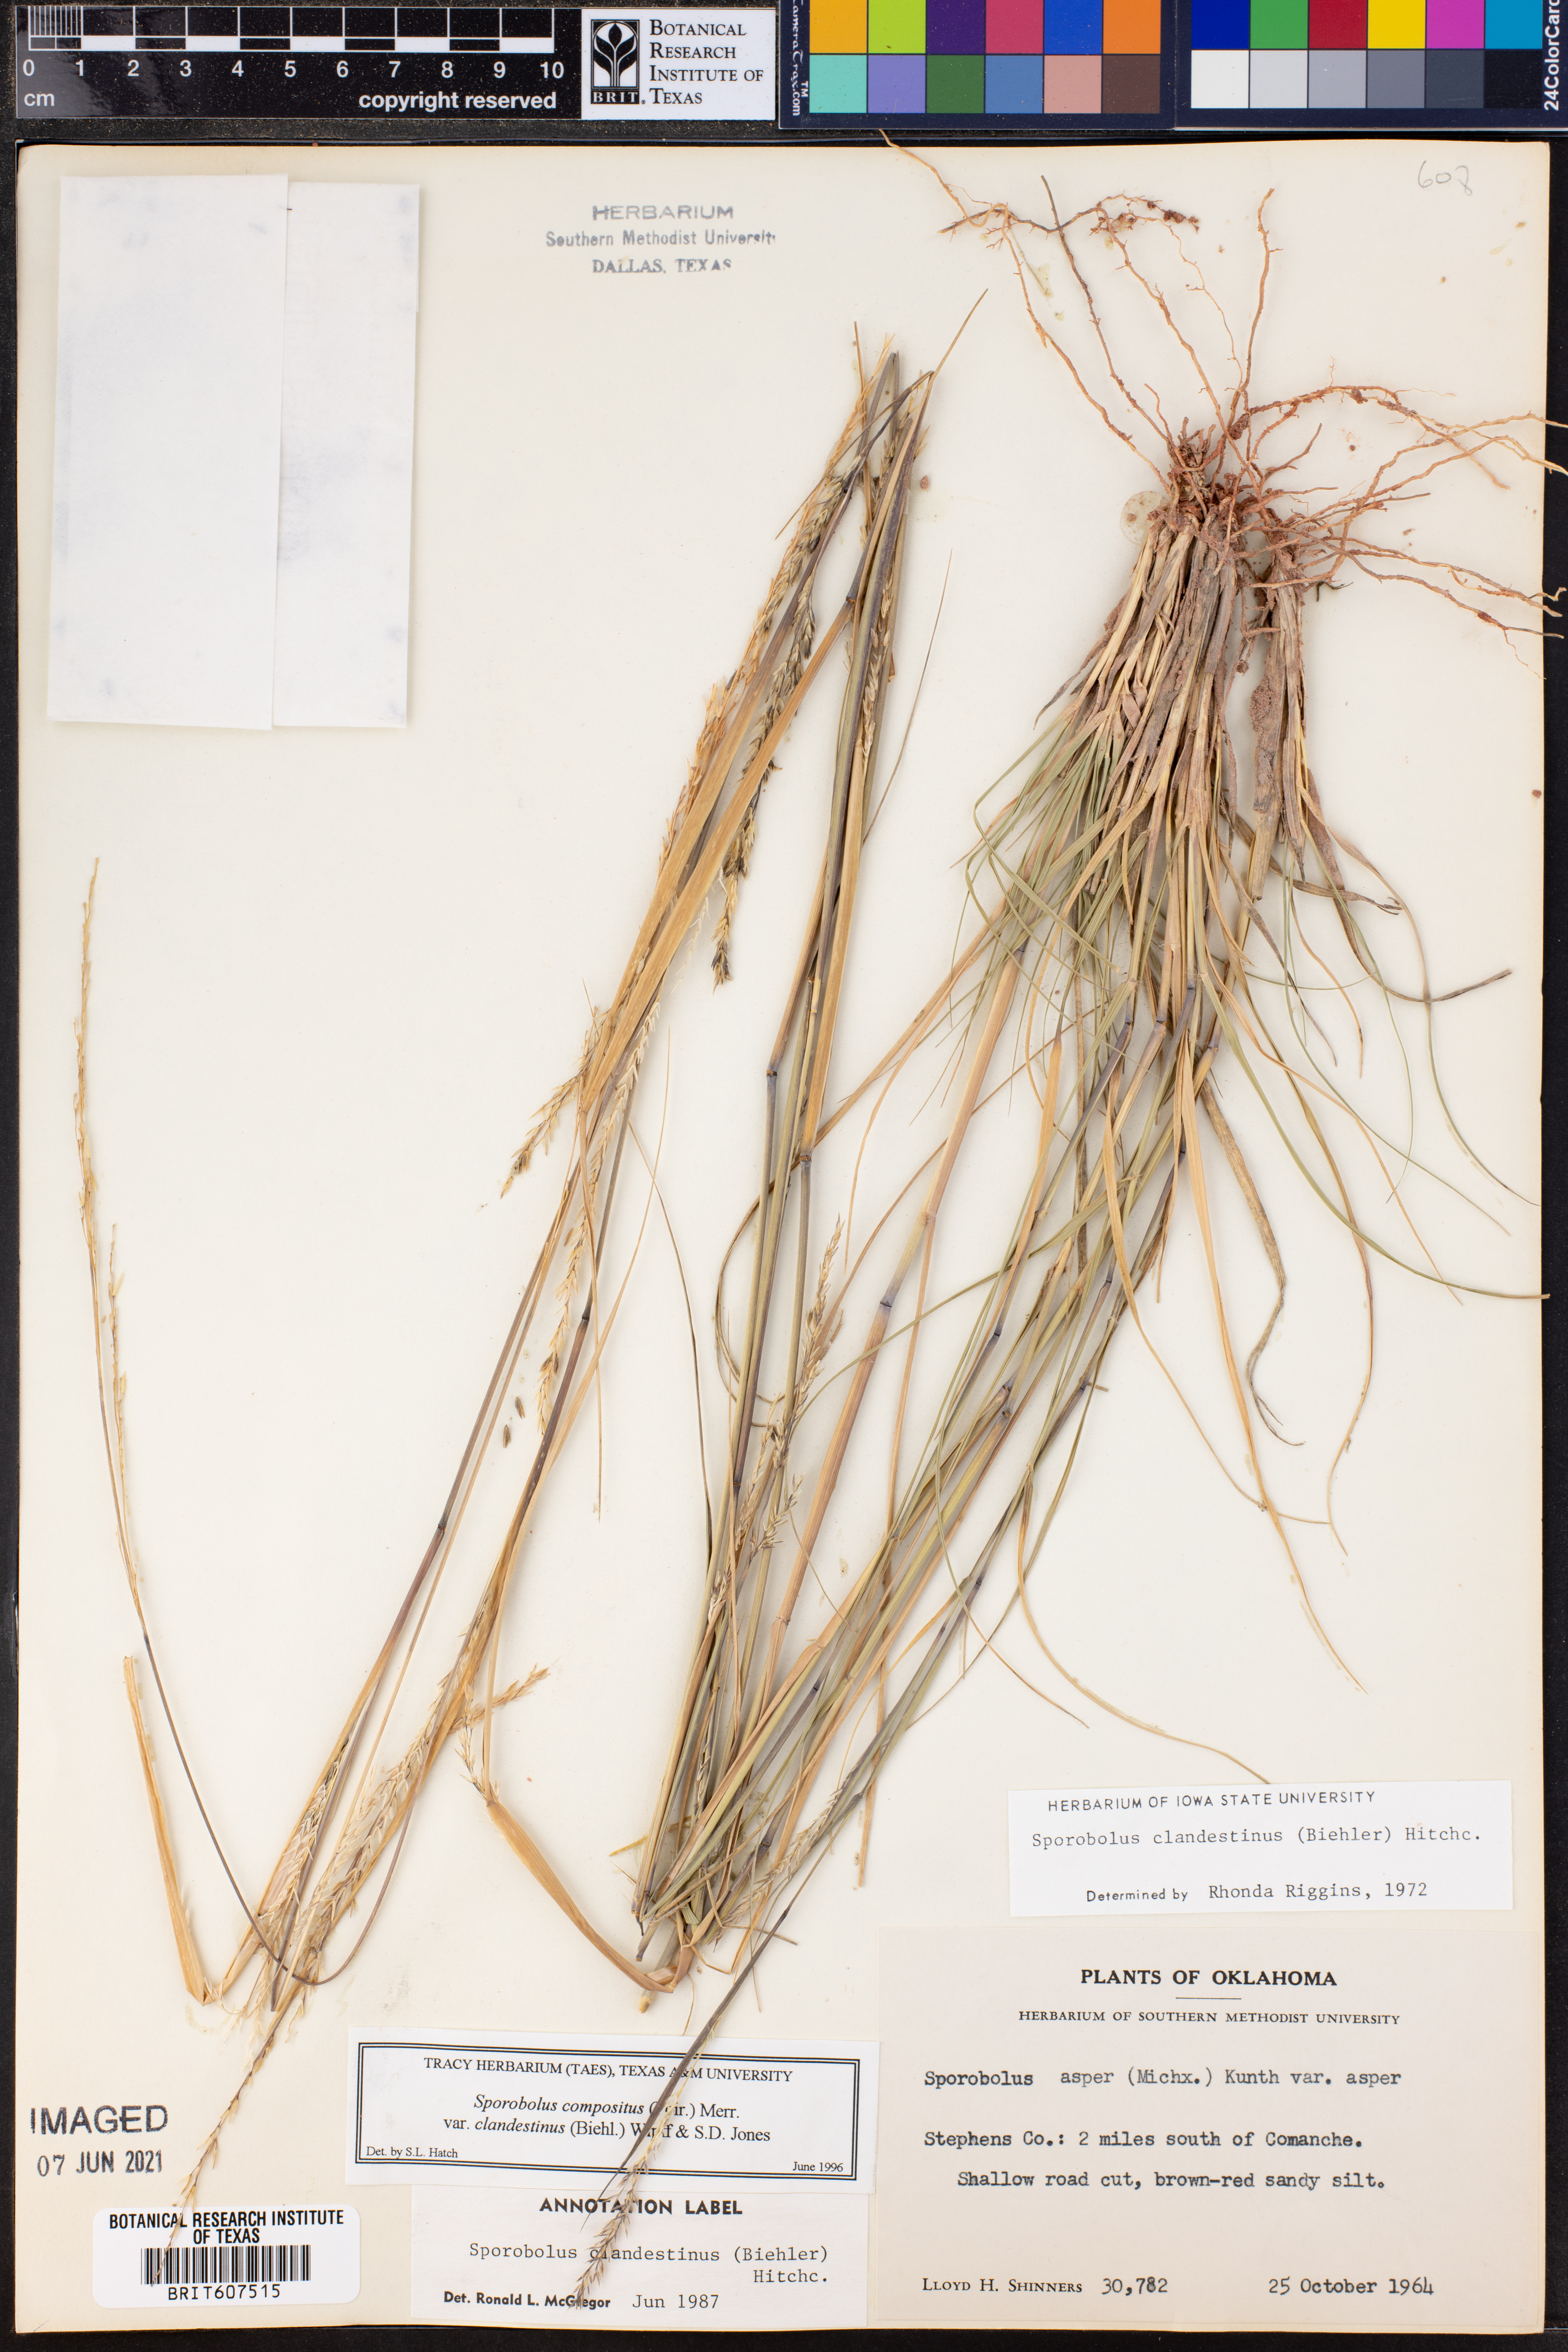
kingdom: Plantae
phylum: Tracheophyta
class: Liliopsida
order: Poales
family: Poaceae
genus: Sporobolus
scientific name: Sporobolus clandestinus
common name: Hidden dropseed
